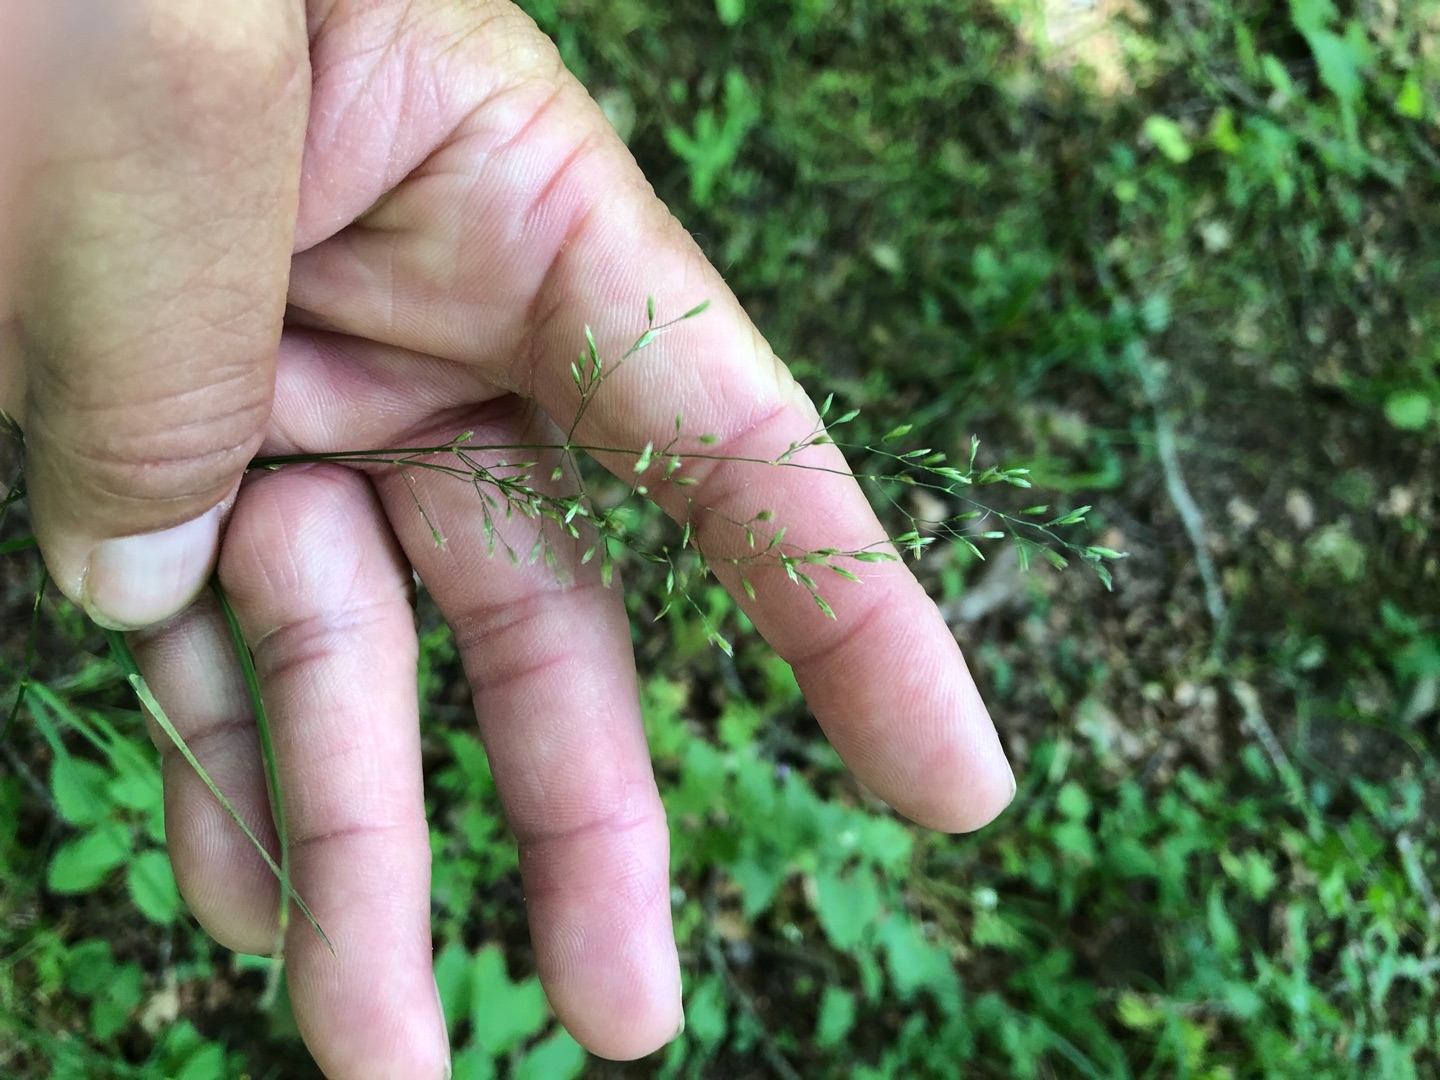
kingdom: Plantae
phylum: Tracheophyta
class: Liliopsida
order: Poales
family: Poaceae
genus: Poa
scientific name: Poa nemoralis
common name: Lund-rapgræs
